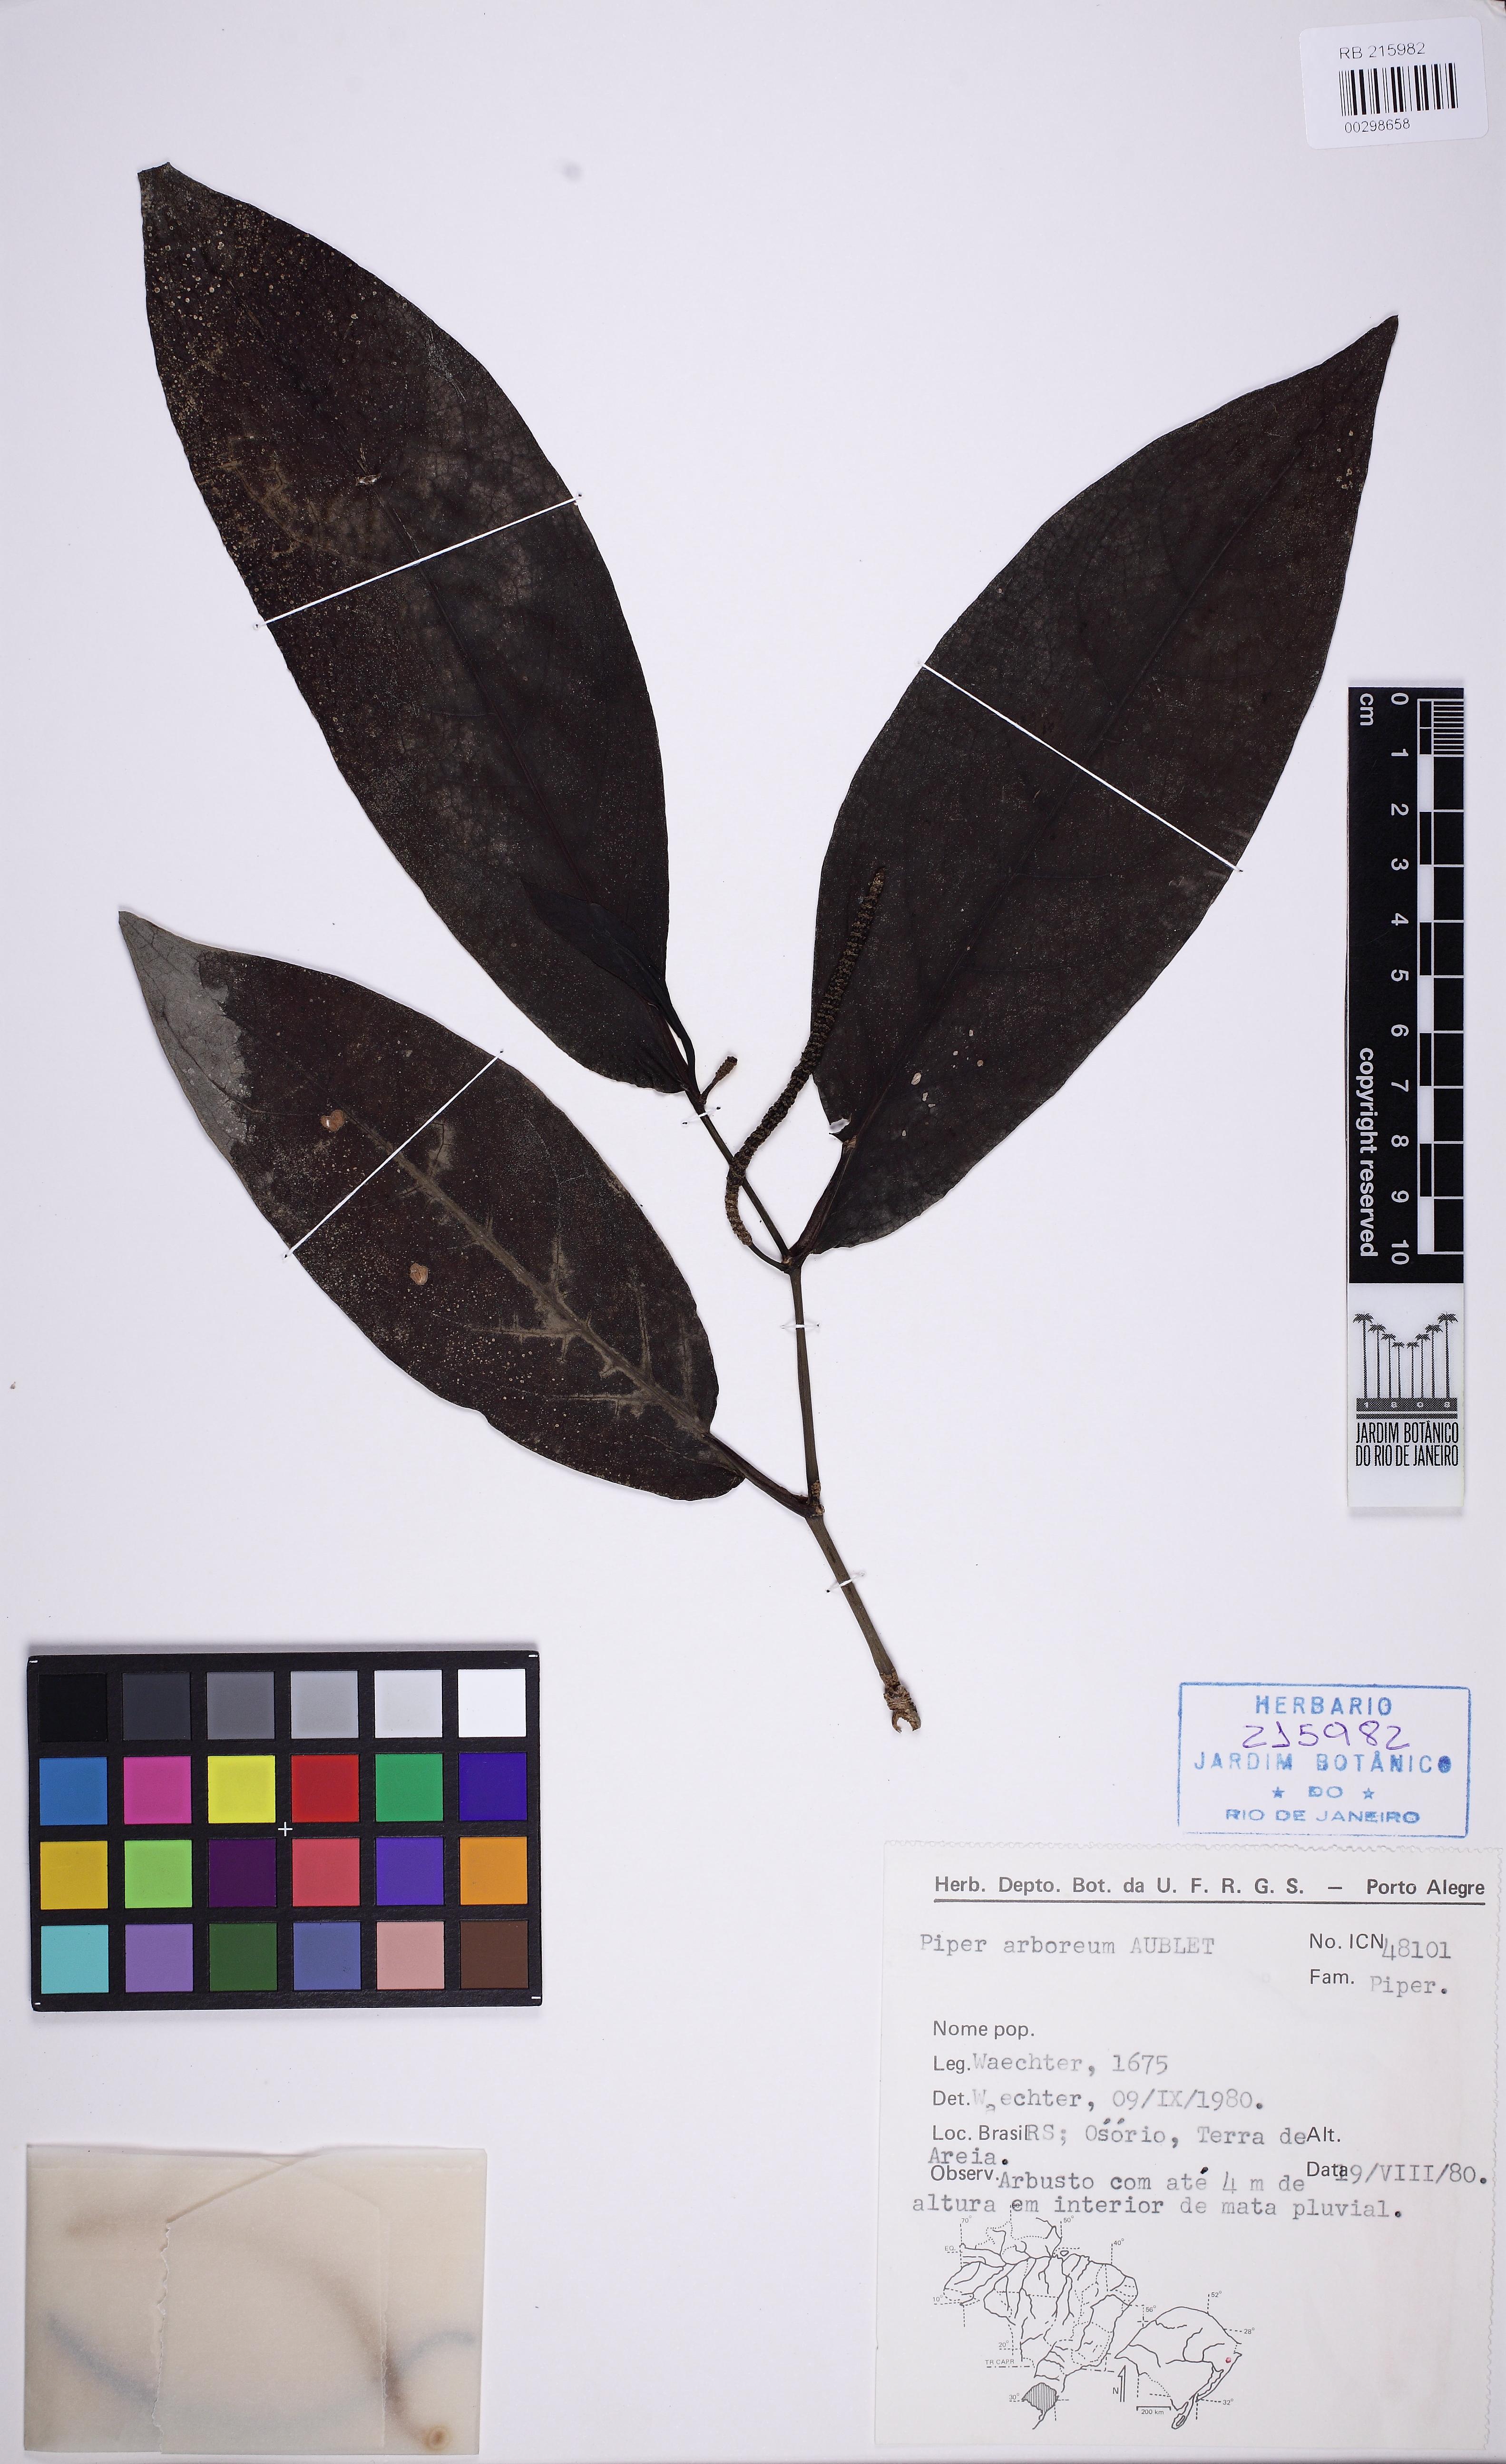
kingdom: Plantae
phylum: Tracheophyta
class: Magnoliopsida
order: Piperales
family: Piperaceae
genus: Piper
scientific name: Piper arboreum
